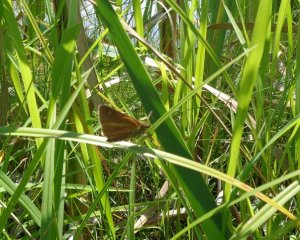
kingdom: Animalia
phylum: Arthropoda
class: Insecta
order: Lepidoptera
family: Hesperiidae
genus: Euphyes
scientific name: Euphyes dion
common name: Dion Skipper
